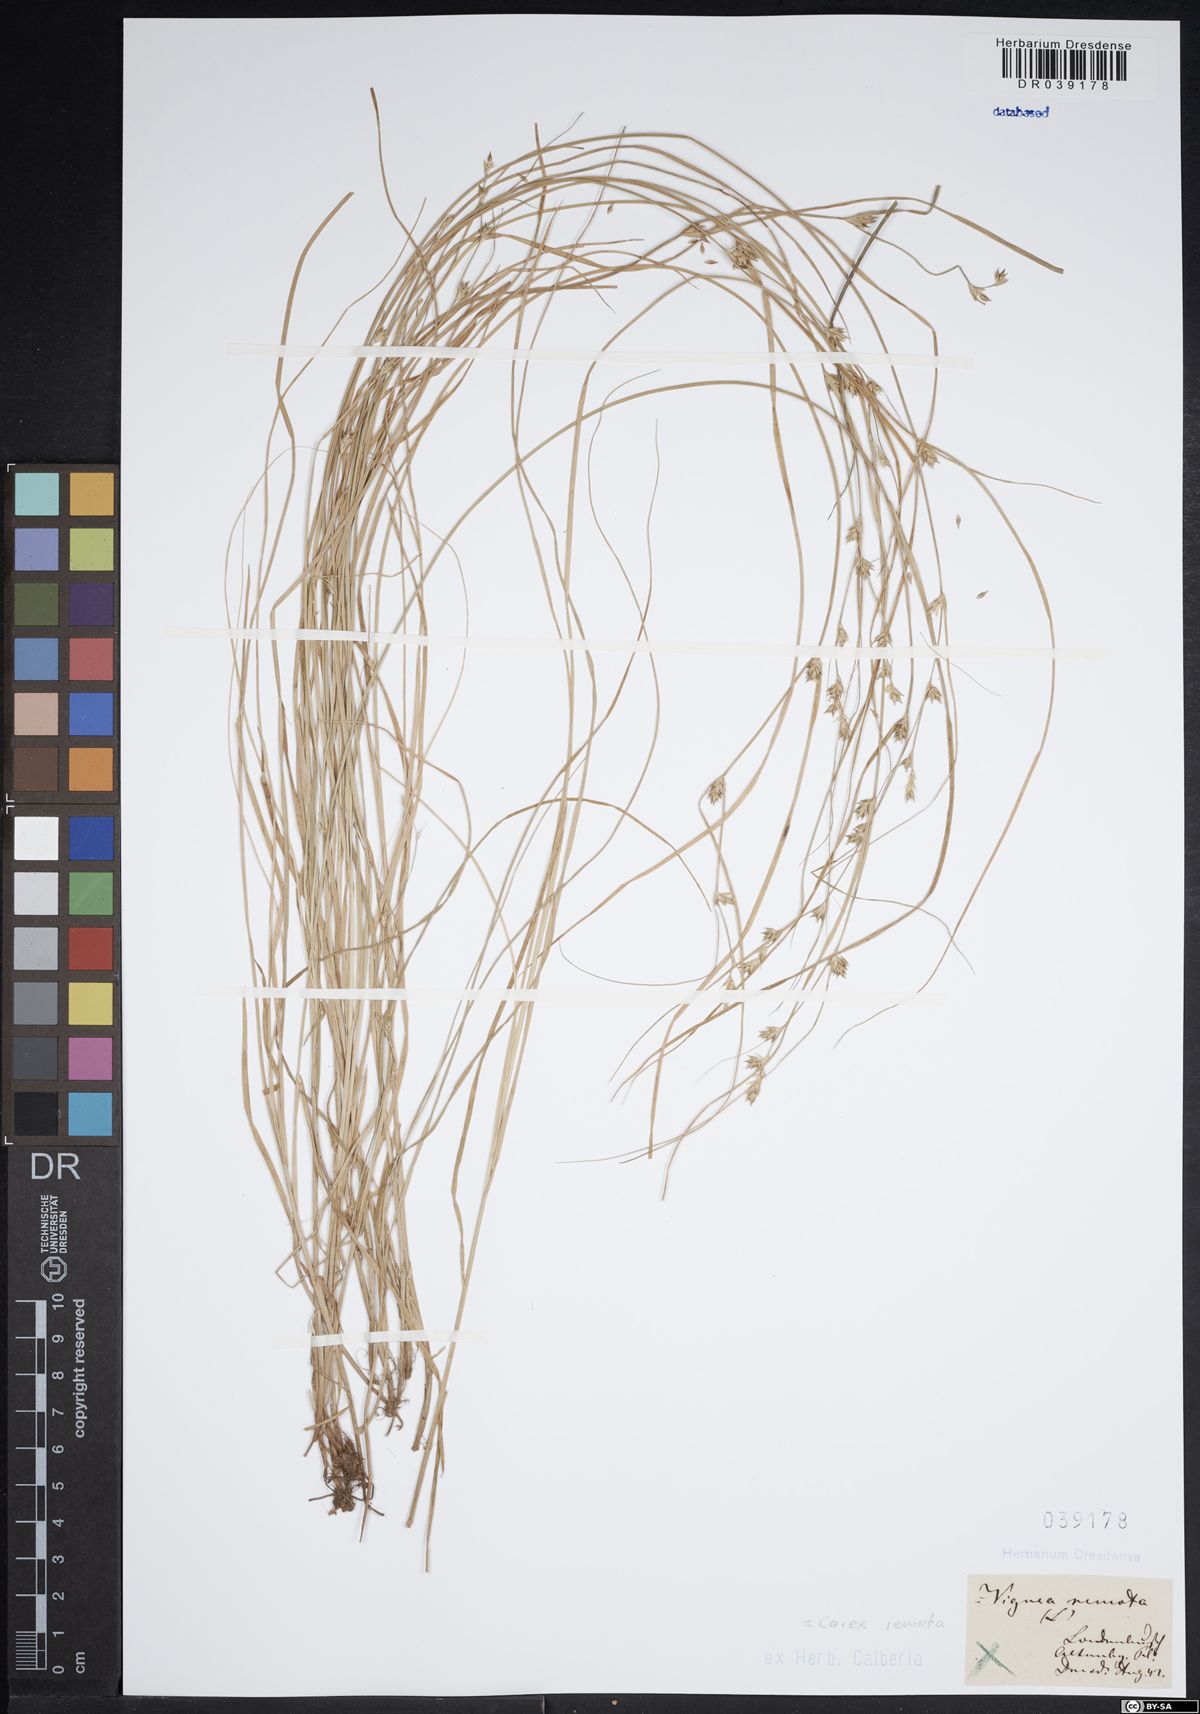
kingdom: Plantae
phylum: Tracheophyta
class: Liliopsida
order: Poales
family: Cyperaceae
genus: Carex
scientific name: Carex remota
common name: Remote sedge
